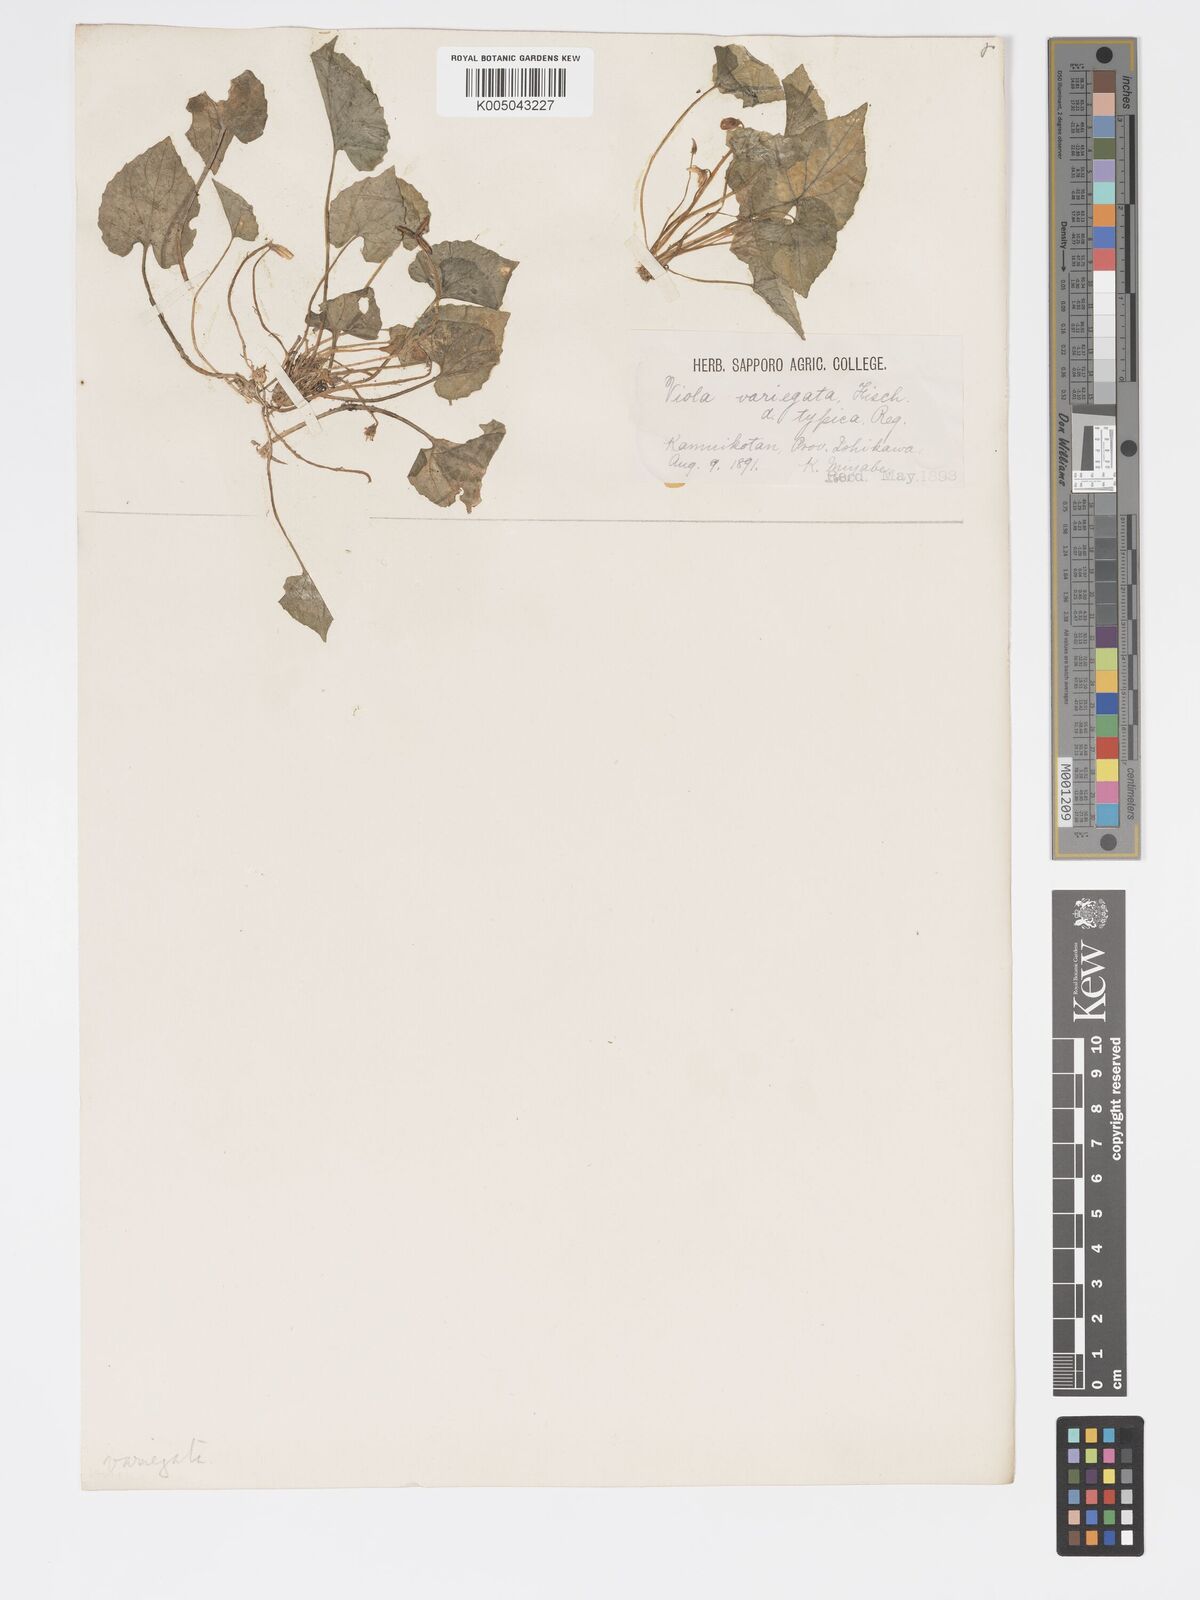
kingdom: Plantae
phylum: Tracheophyta
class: Magnoliopsida
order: Malpighiales
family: Violaceae
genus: Viola
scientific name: Viola vaginata
